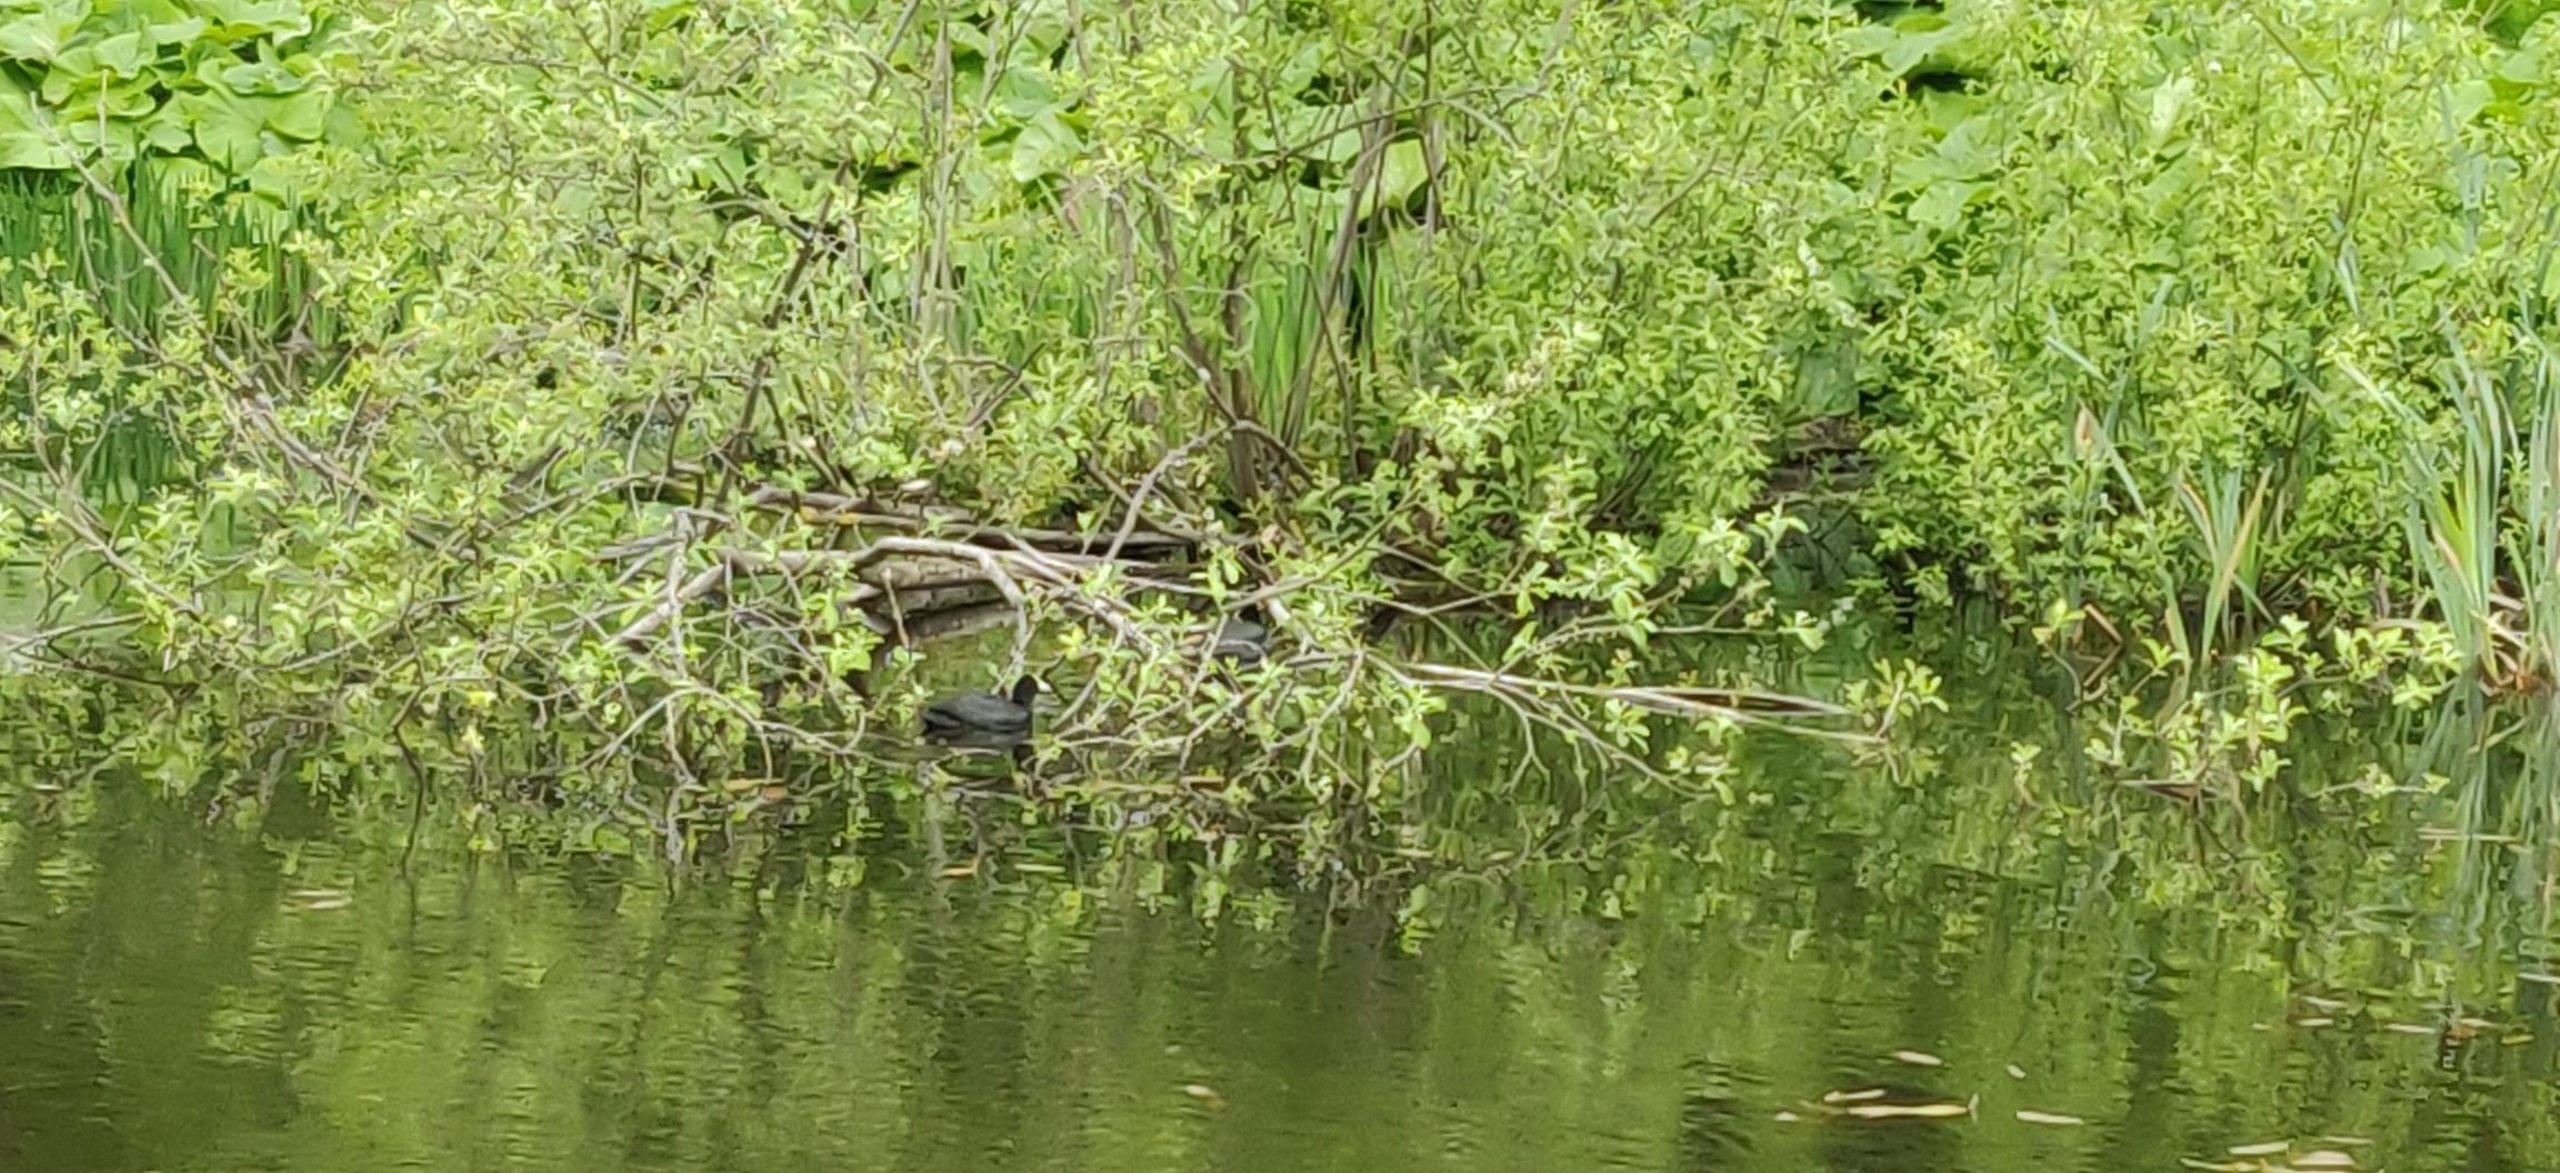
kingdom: Animalia
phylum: Chordata
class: Aves
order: Gruiformes
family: Rallidae
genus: Fulica
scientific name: Fulica atra
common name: Blishøne
